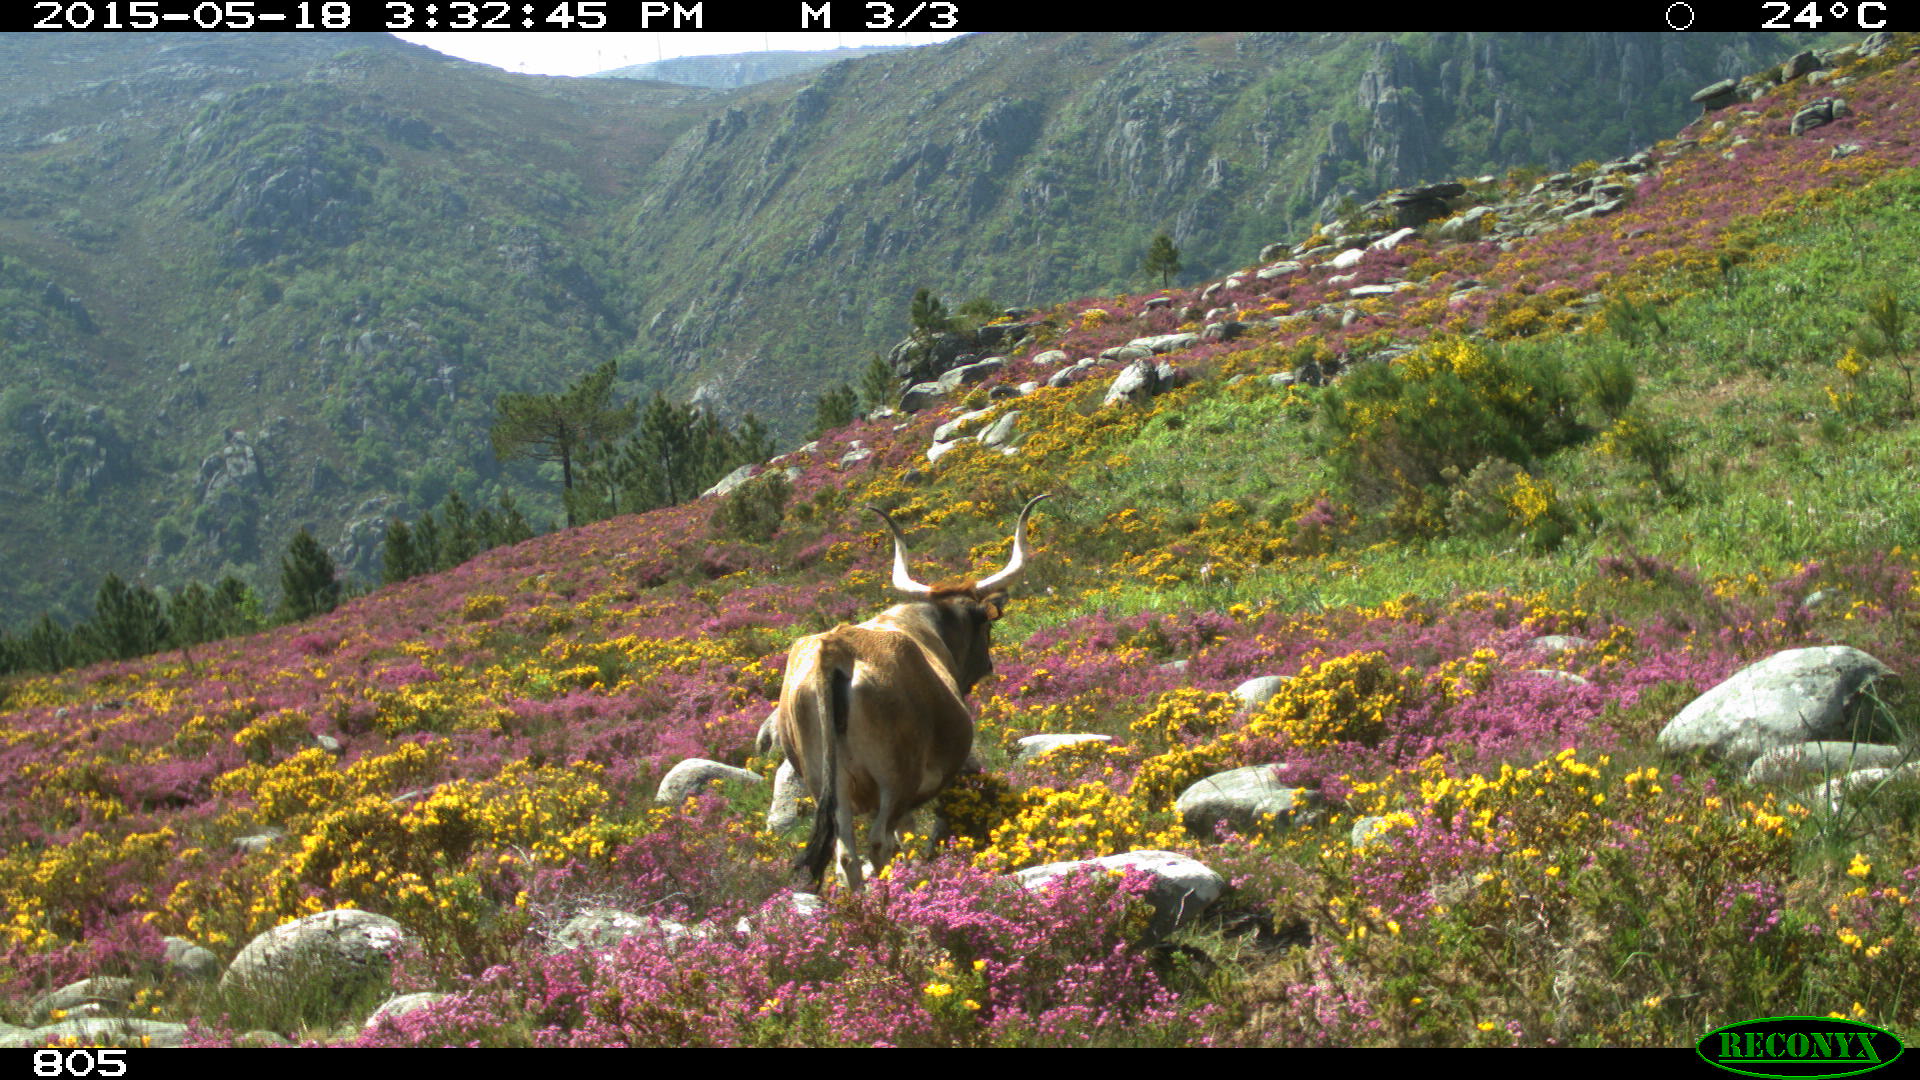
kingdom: Animalia
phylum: Chordata
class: Mammalia
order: Artiodactyla
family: Bovidae
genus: Bos
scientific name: Bos taurus
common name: Domesticated cattle
